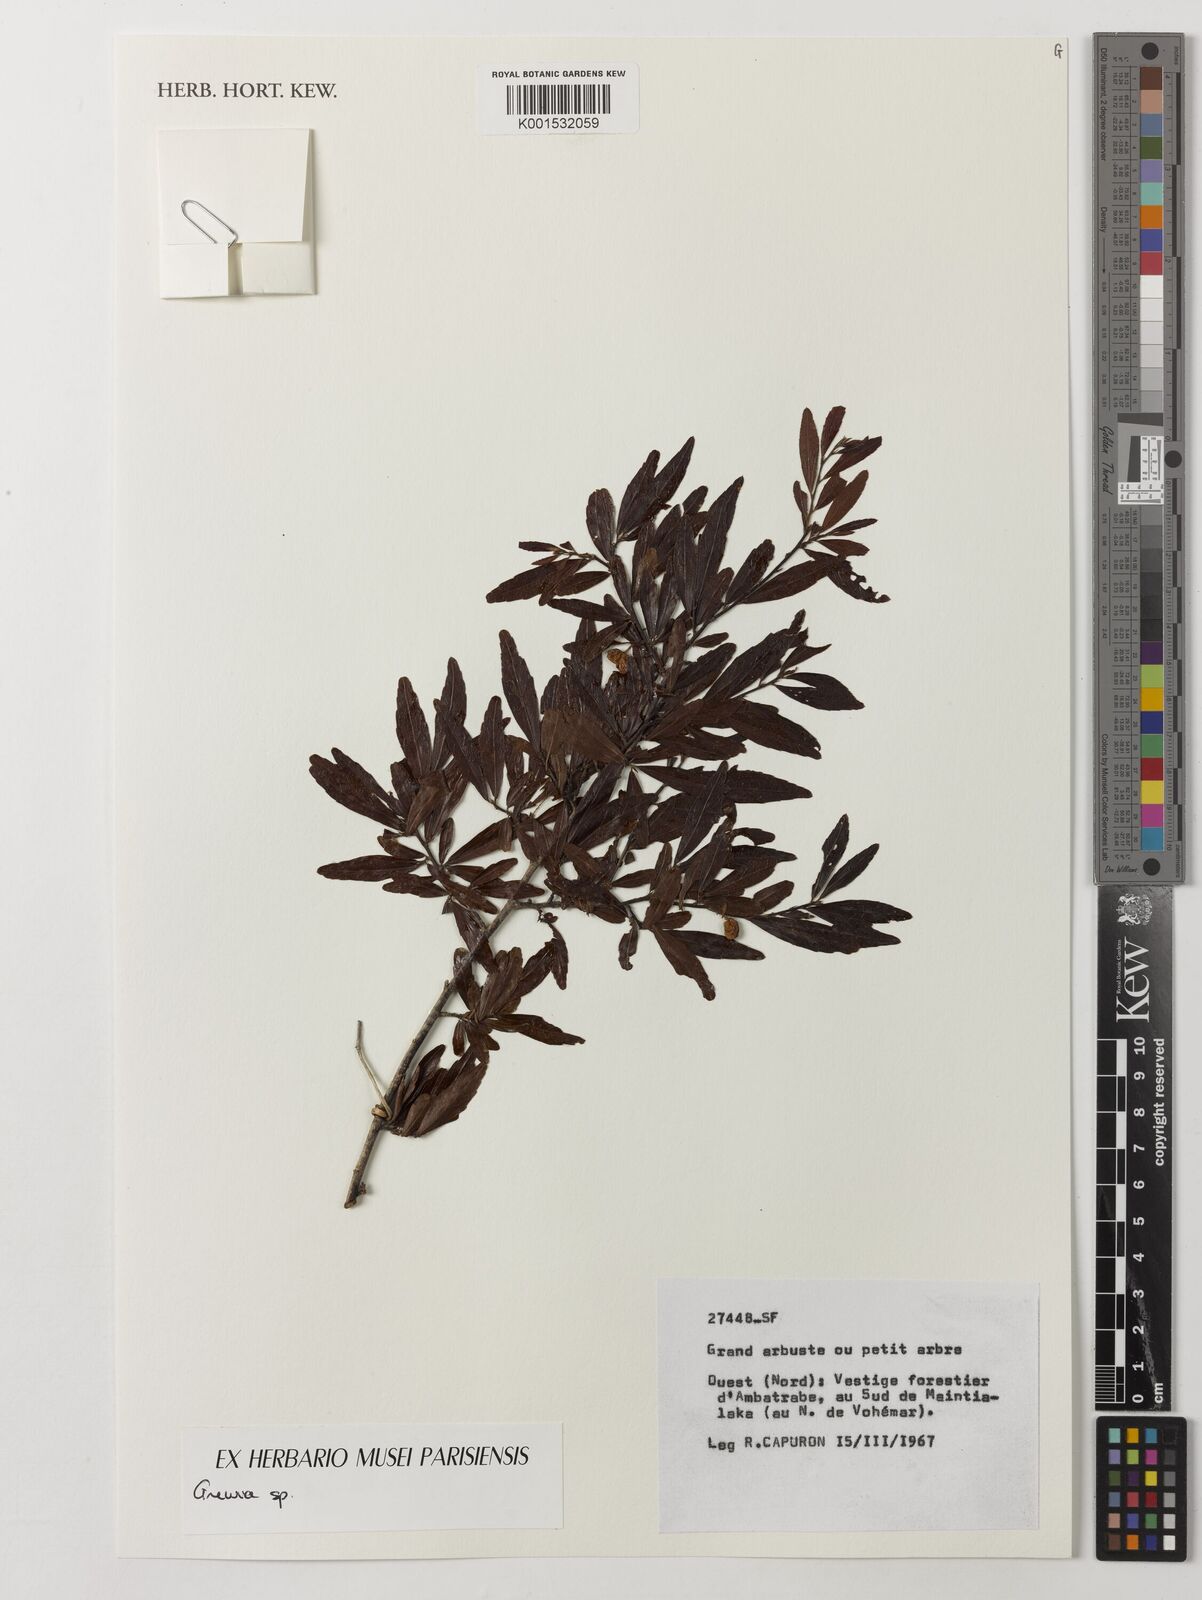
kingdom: Plantae
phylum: Tracheophyta
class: Magnoliopsida
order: Malvales
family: Malvaceae
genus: Grewia
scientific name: Grewia
